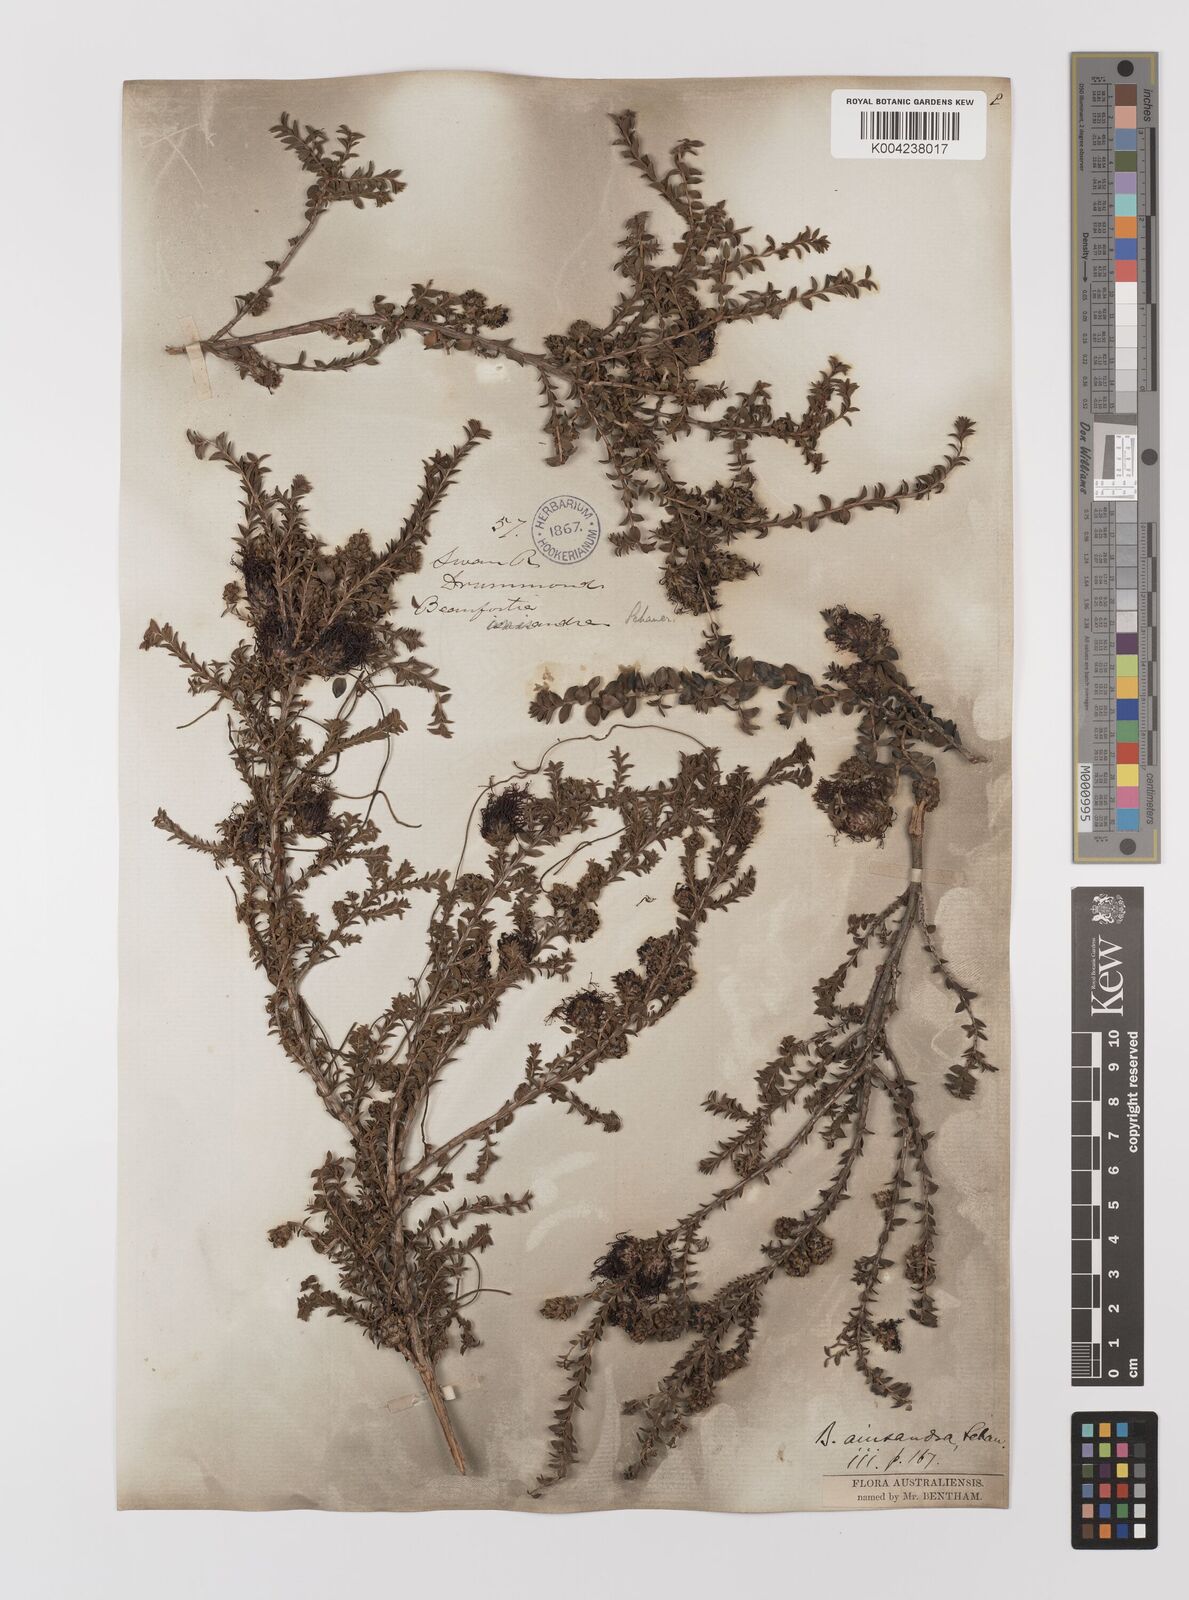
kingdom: Plantae
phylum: Tracheophyta
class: Magnoliopsida
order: Myrtales
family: Myrtaceae
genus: Melaleuca
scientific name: Melaleuca anisandra
